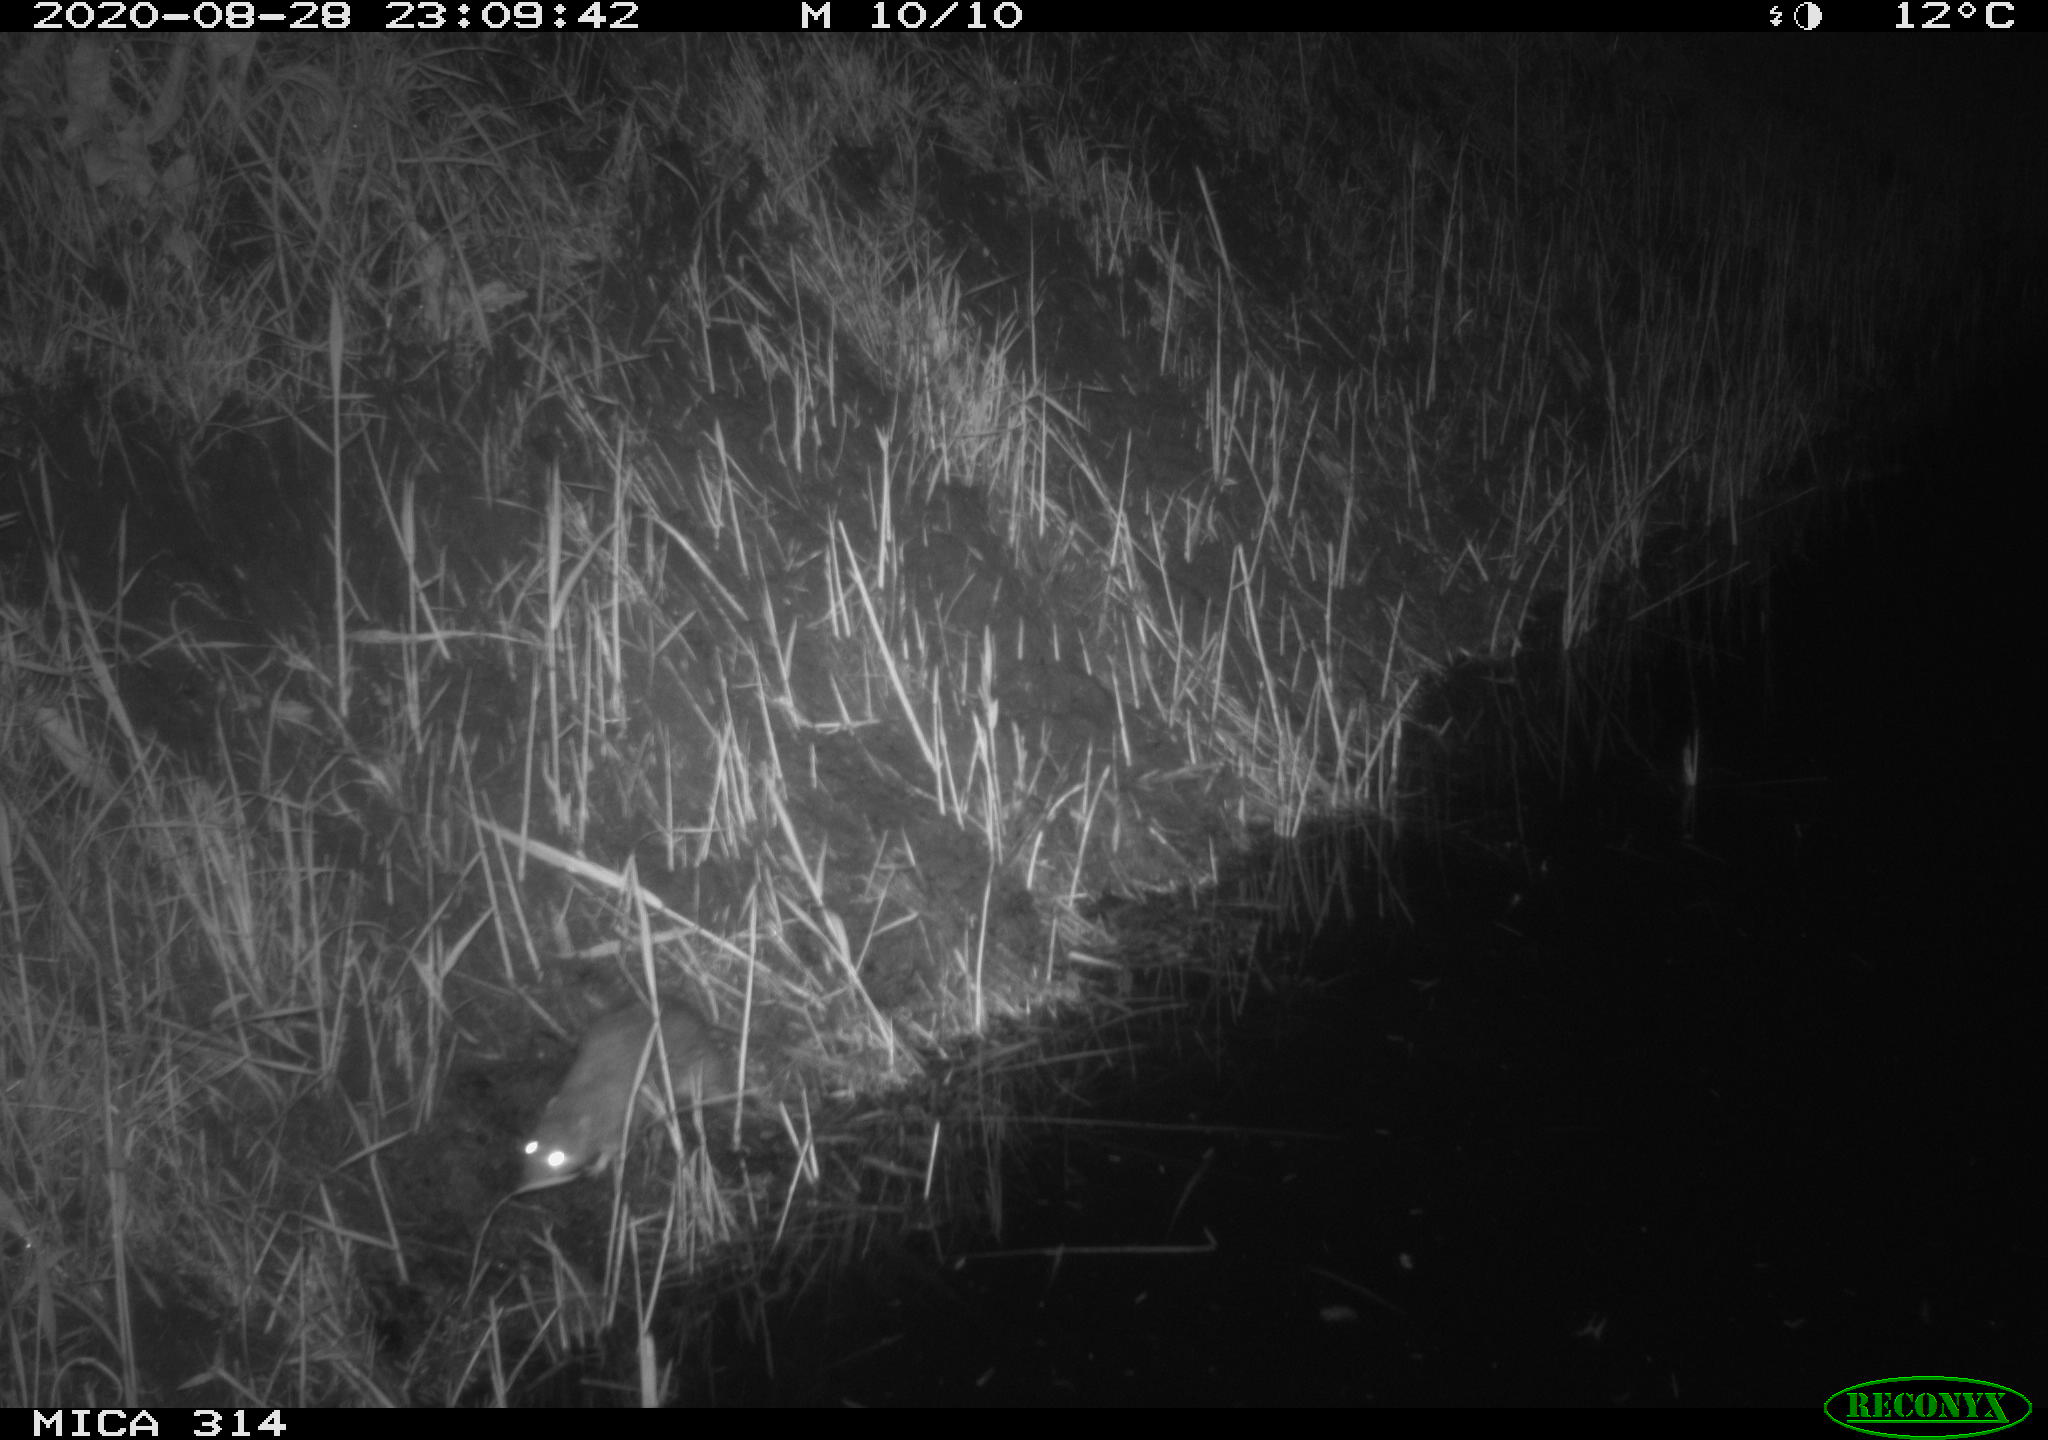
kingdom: Animalia
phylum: Chordata
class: Mammalia
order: Rodentia
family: Muridae
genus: Rattus
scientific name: Rattus norvegicus
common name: Brown rat
